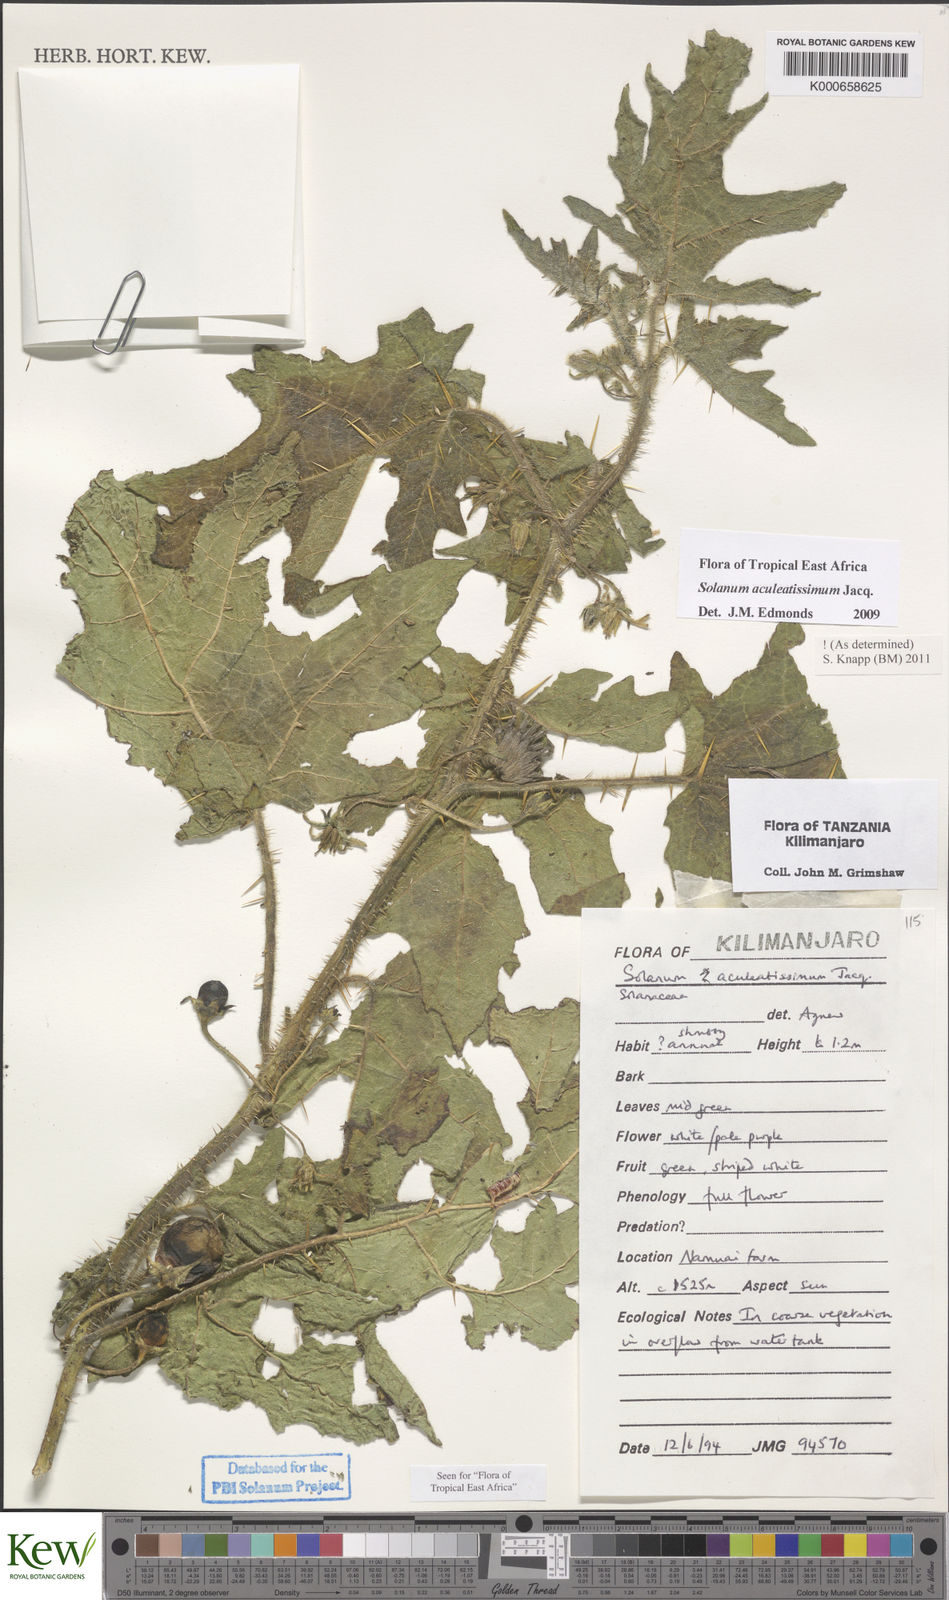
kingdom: Plantae
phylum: Tracheophyta
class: Magnoliopsida
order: Solanales
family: Solanaceae
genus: Solanum
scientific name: Solanum aculeatissimum
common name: Dutch eggplant
